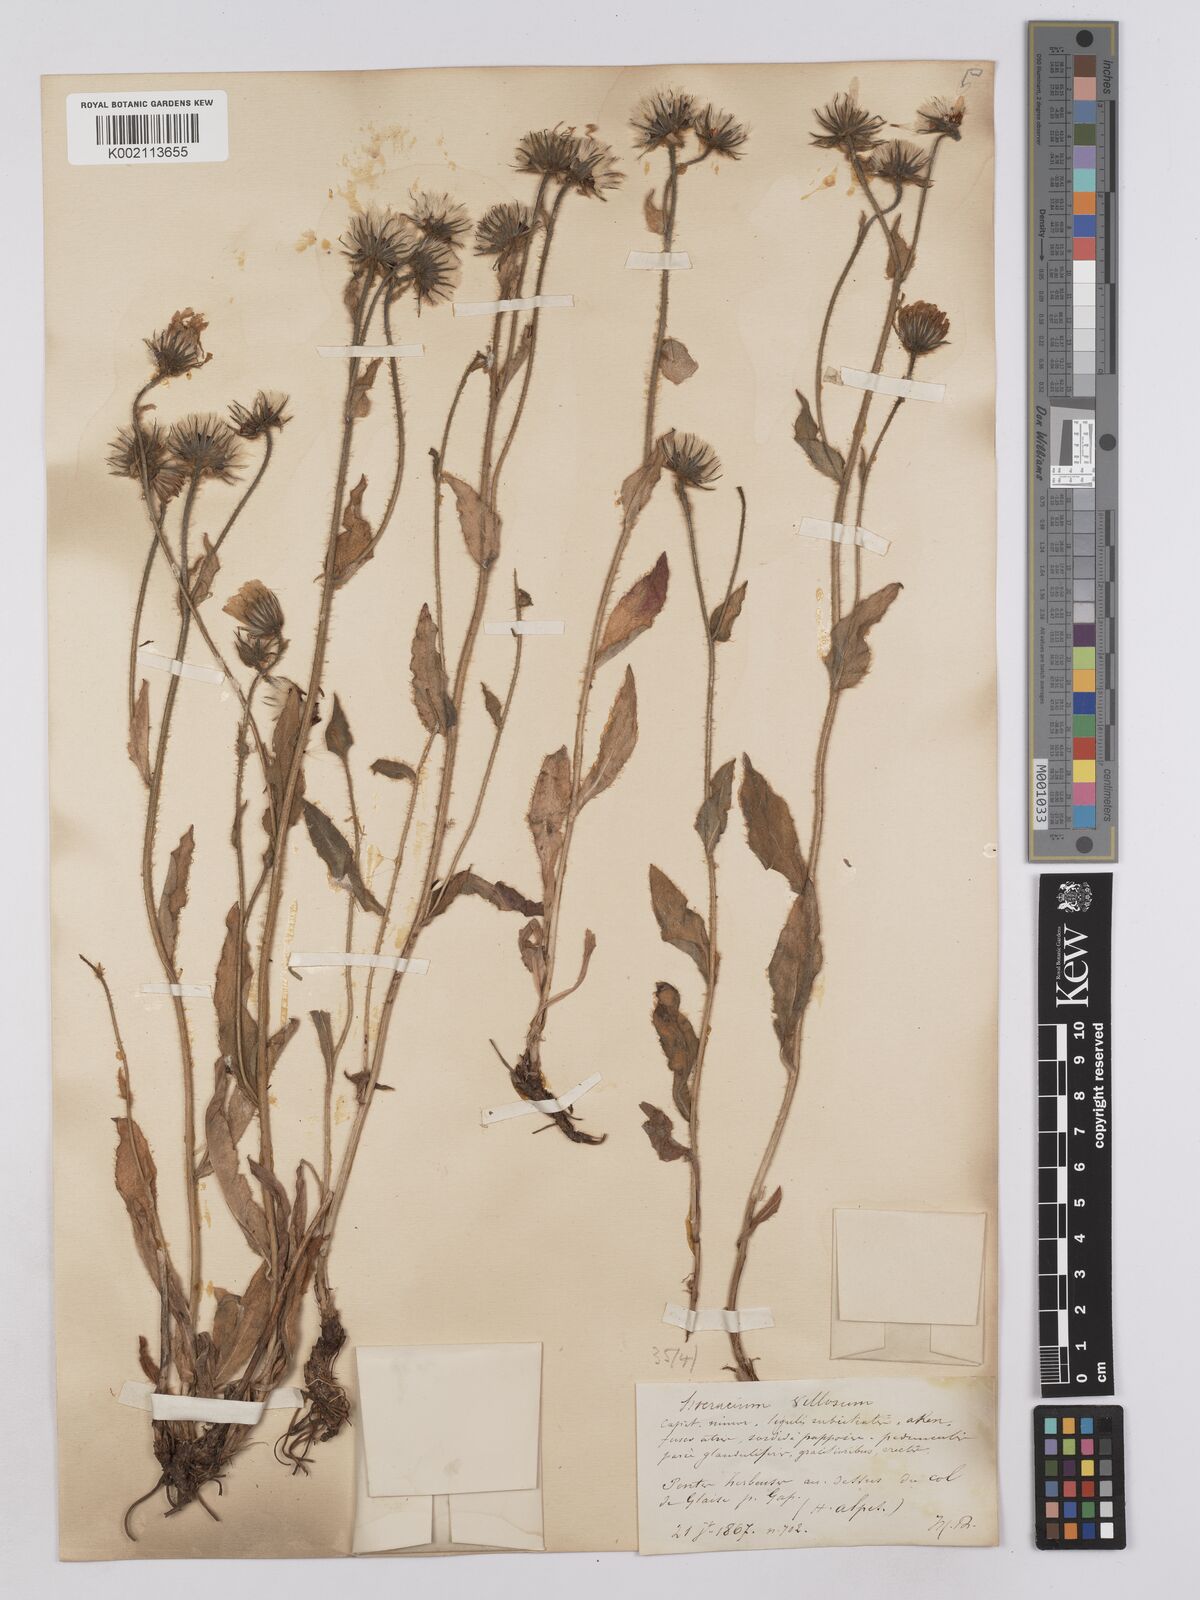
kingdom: Plantae
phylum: Tracheophyta
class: Magnoliopsida
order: Asterales
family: Asteraceae
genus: Hieracium
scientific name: Hieracium villosum
